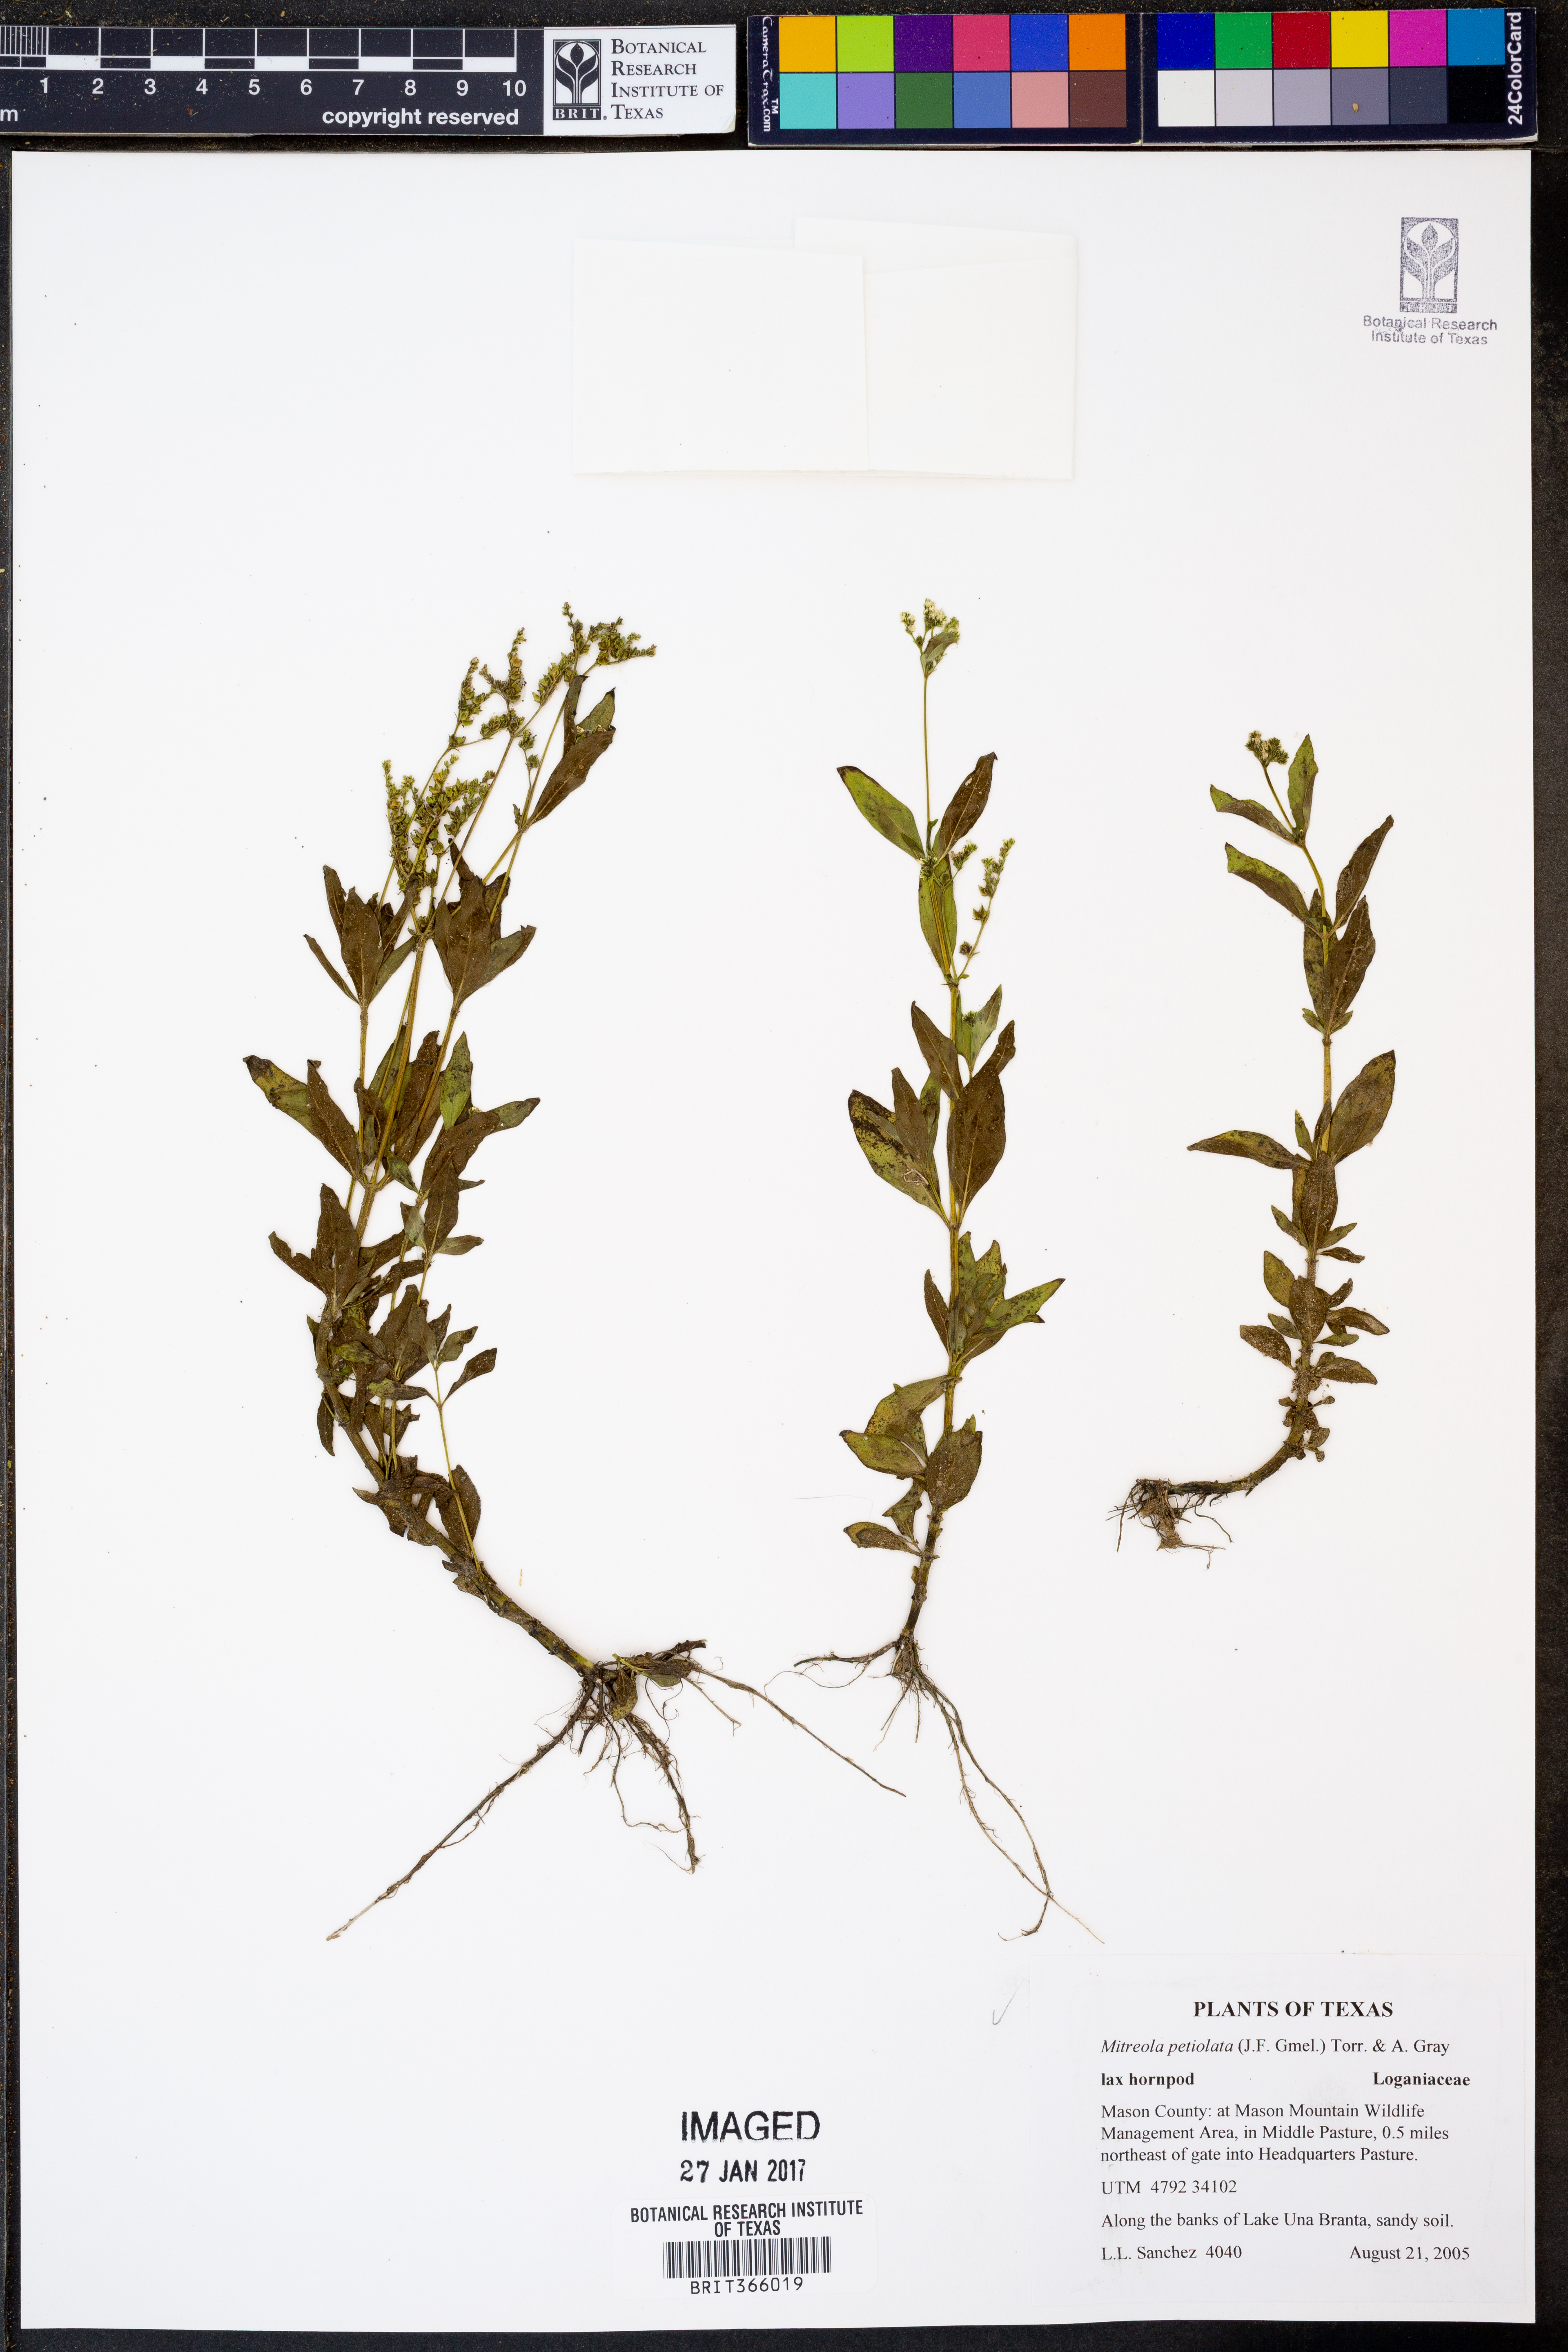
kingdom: Plantae
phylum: Tracheophyta
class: Magnoliopsida
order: Gentianales
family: Loganiaceae
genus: Mitreola
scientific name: Mitreola petiolata
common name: Lax hornpod
